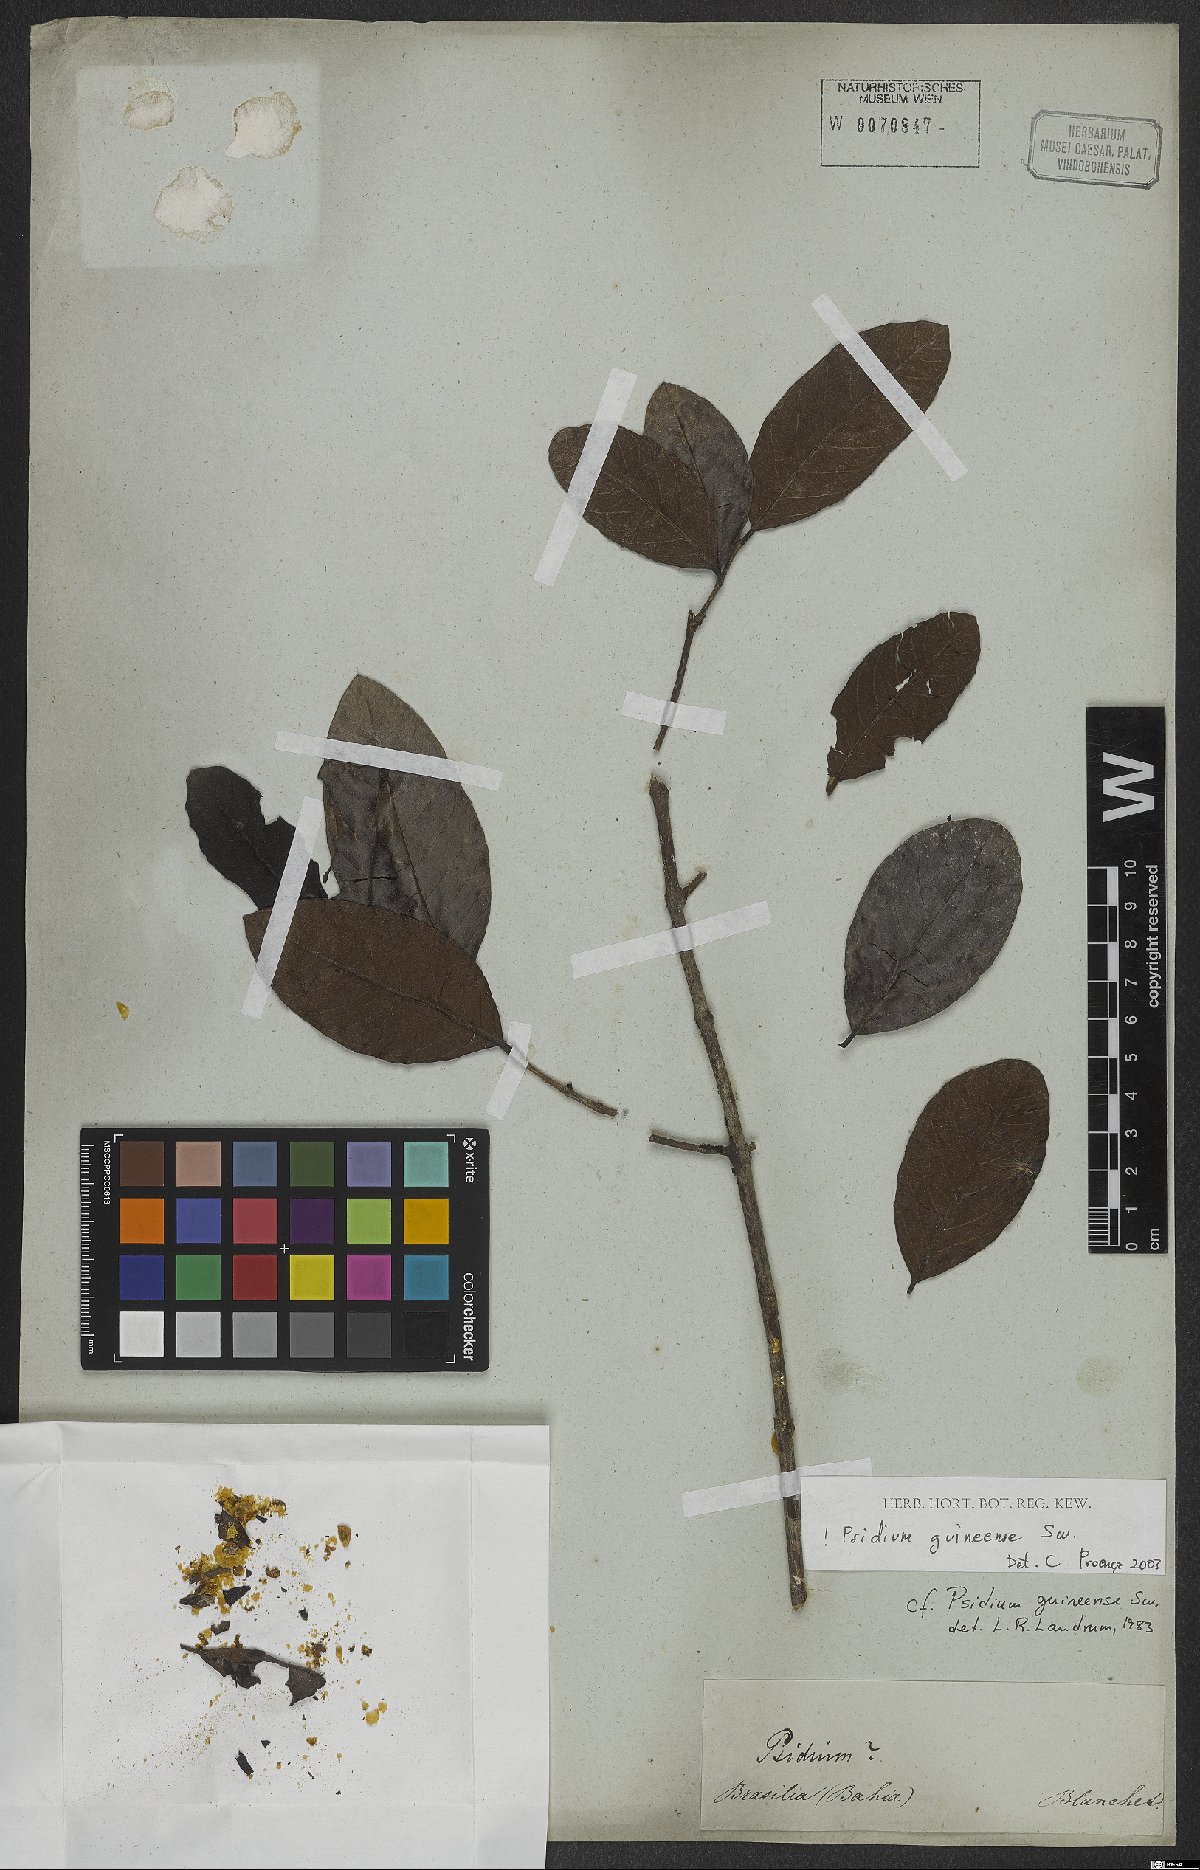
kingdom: Plantae
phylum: Tracheophyta
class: Magnoliopsida
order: Myrtales
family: Myrtaceae
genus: Psidium
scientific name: Psidium guineense
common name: Brazilian guava
